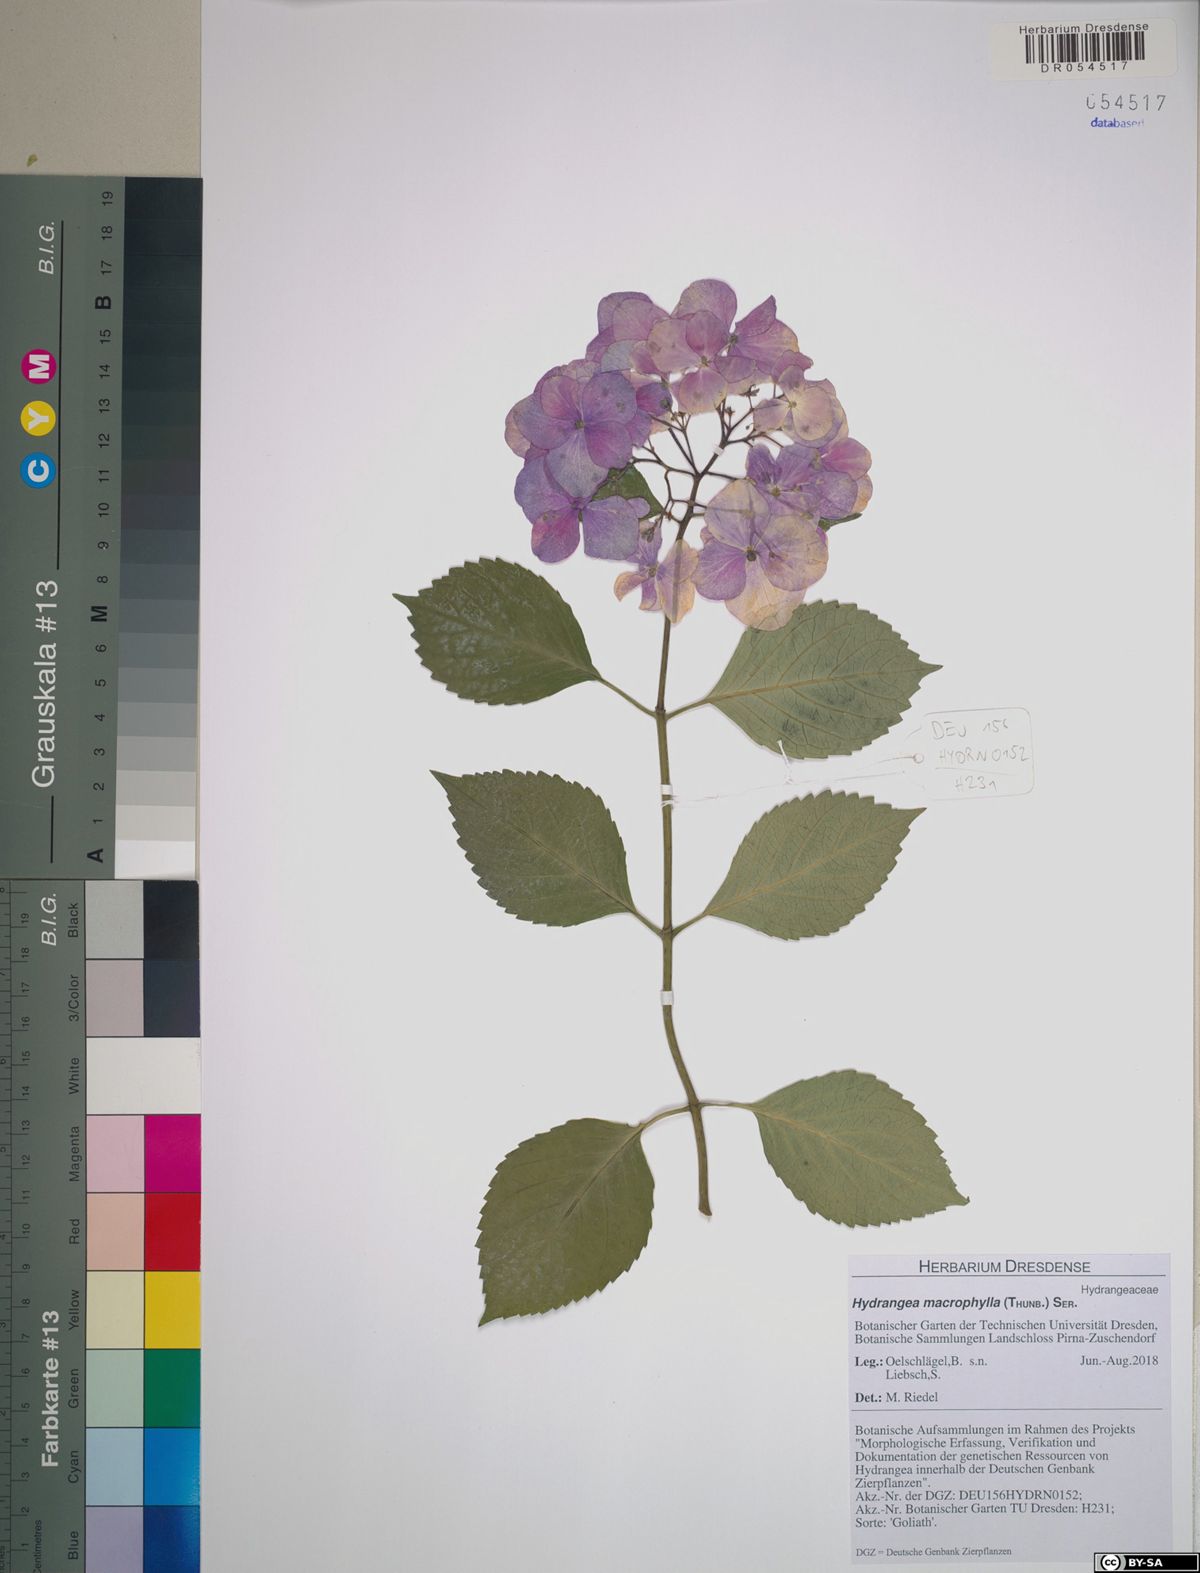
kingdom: Plantae
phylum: Tracheophyta
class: Magnoliopsida
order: Cornales
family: Hydrangeaceae
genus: Hydrangea
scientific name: Hydrangea macrophylla
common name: Hydrangea
